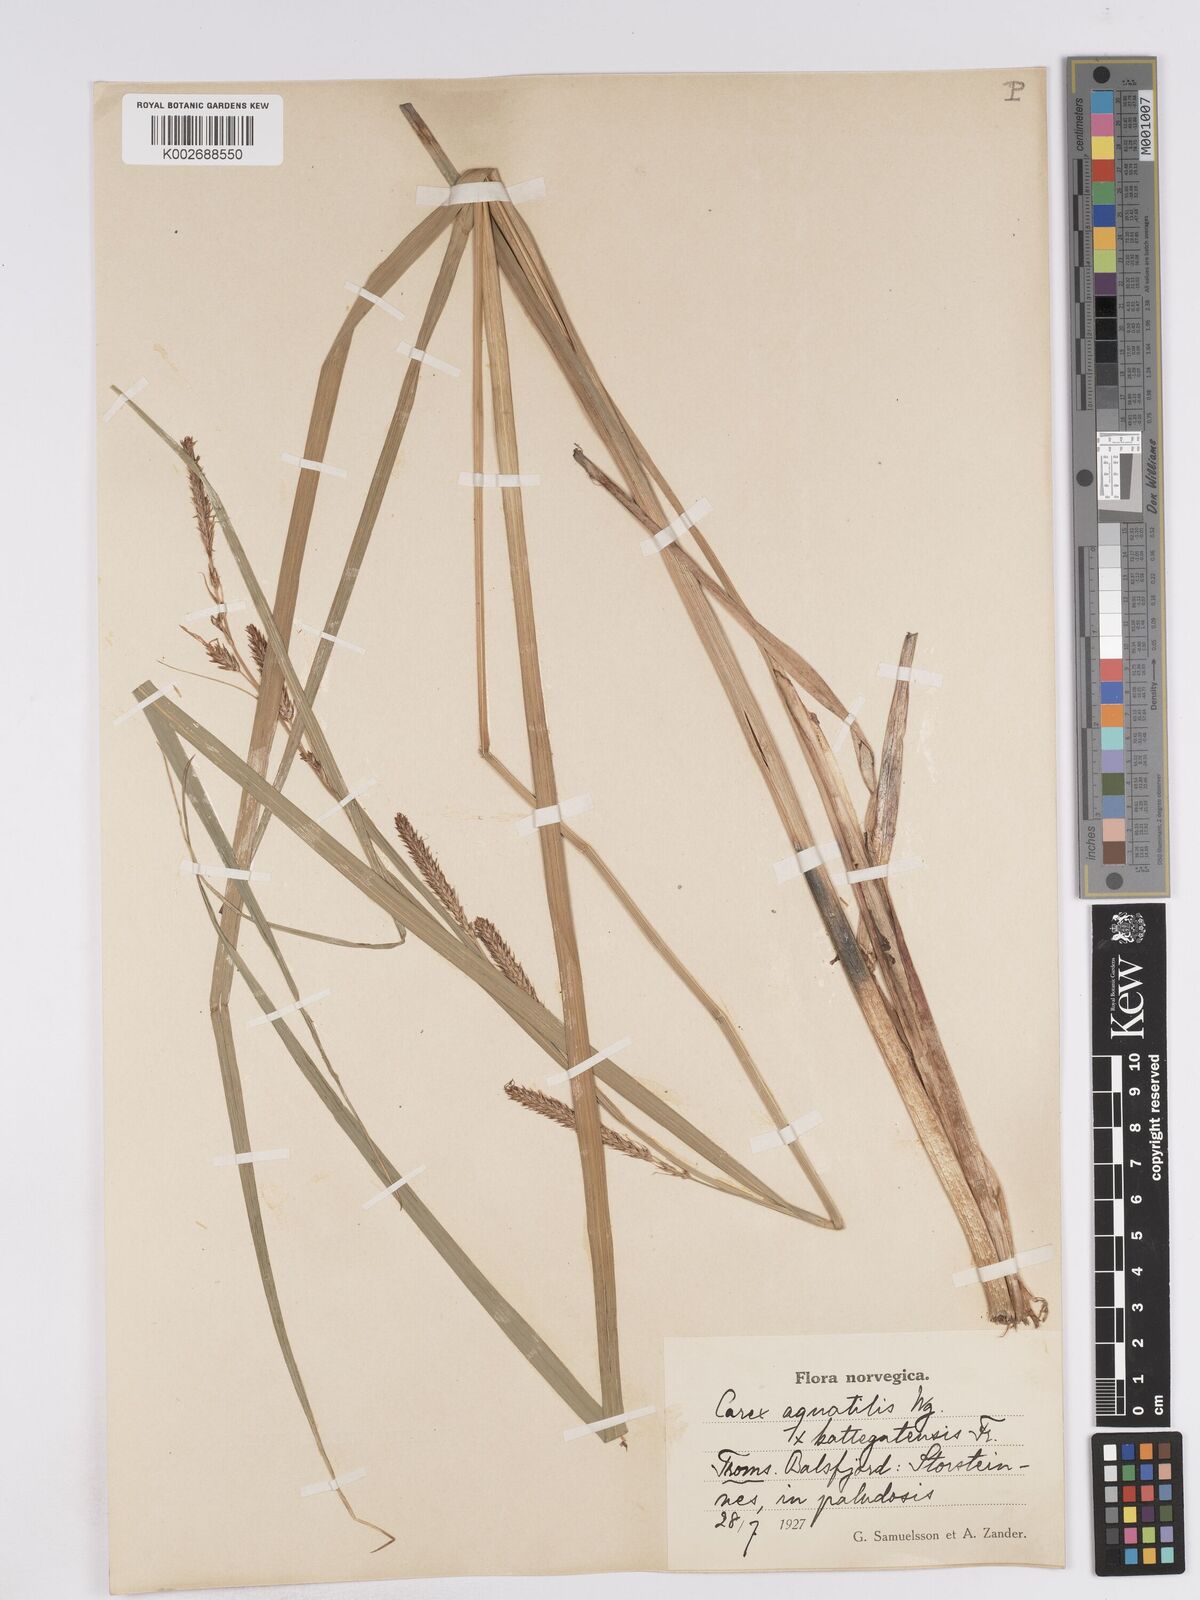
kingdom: Plantae
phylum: Tracheophyta
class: Liliopsida
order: Poales
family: Cyperaceae
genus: Carex
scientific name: Carex recta
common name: Estuarine sedge
